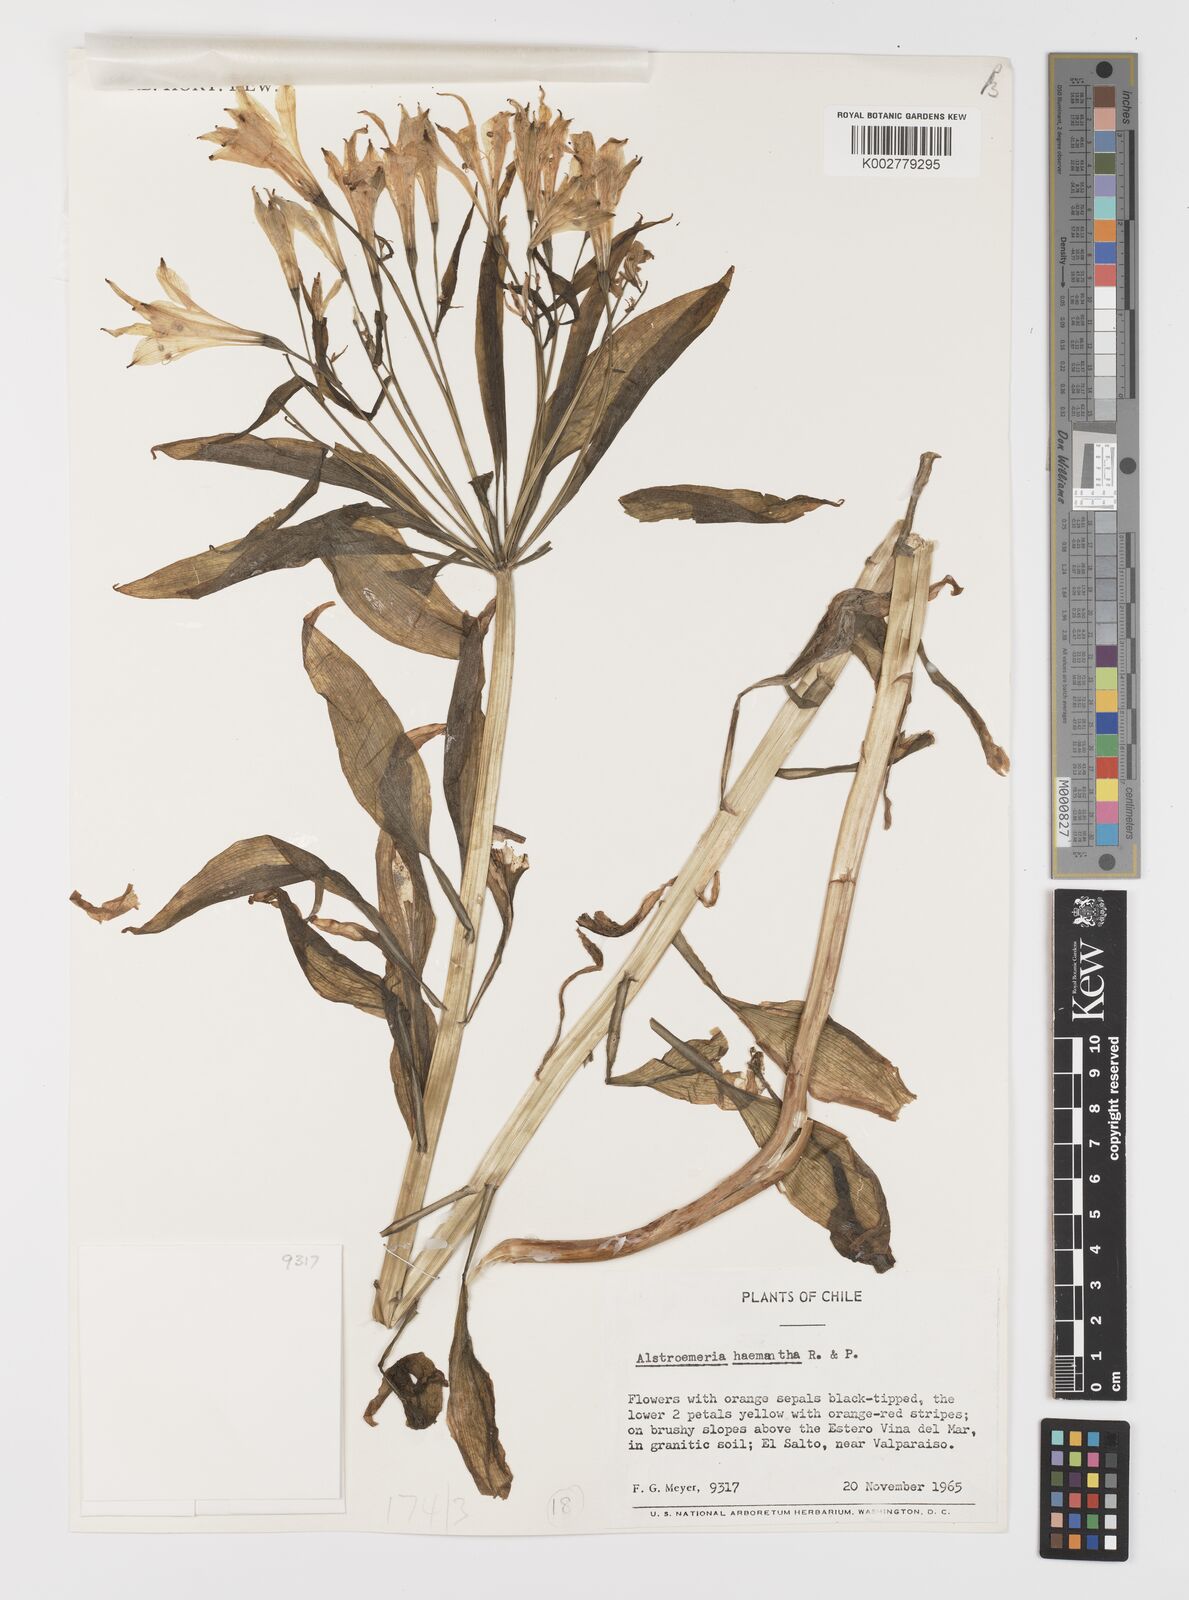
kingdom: Plantae
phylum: Tracheophyta
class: Liliopsida
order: Liliales
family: Alstroemeriaceae
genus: Alstroemeria
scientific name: Alstroemeria ligtu
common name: St. martin's-flower
